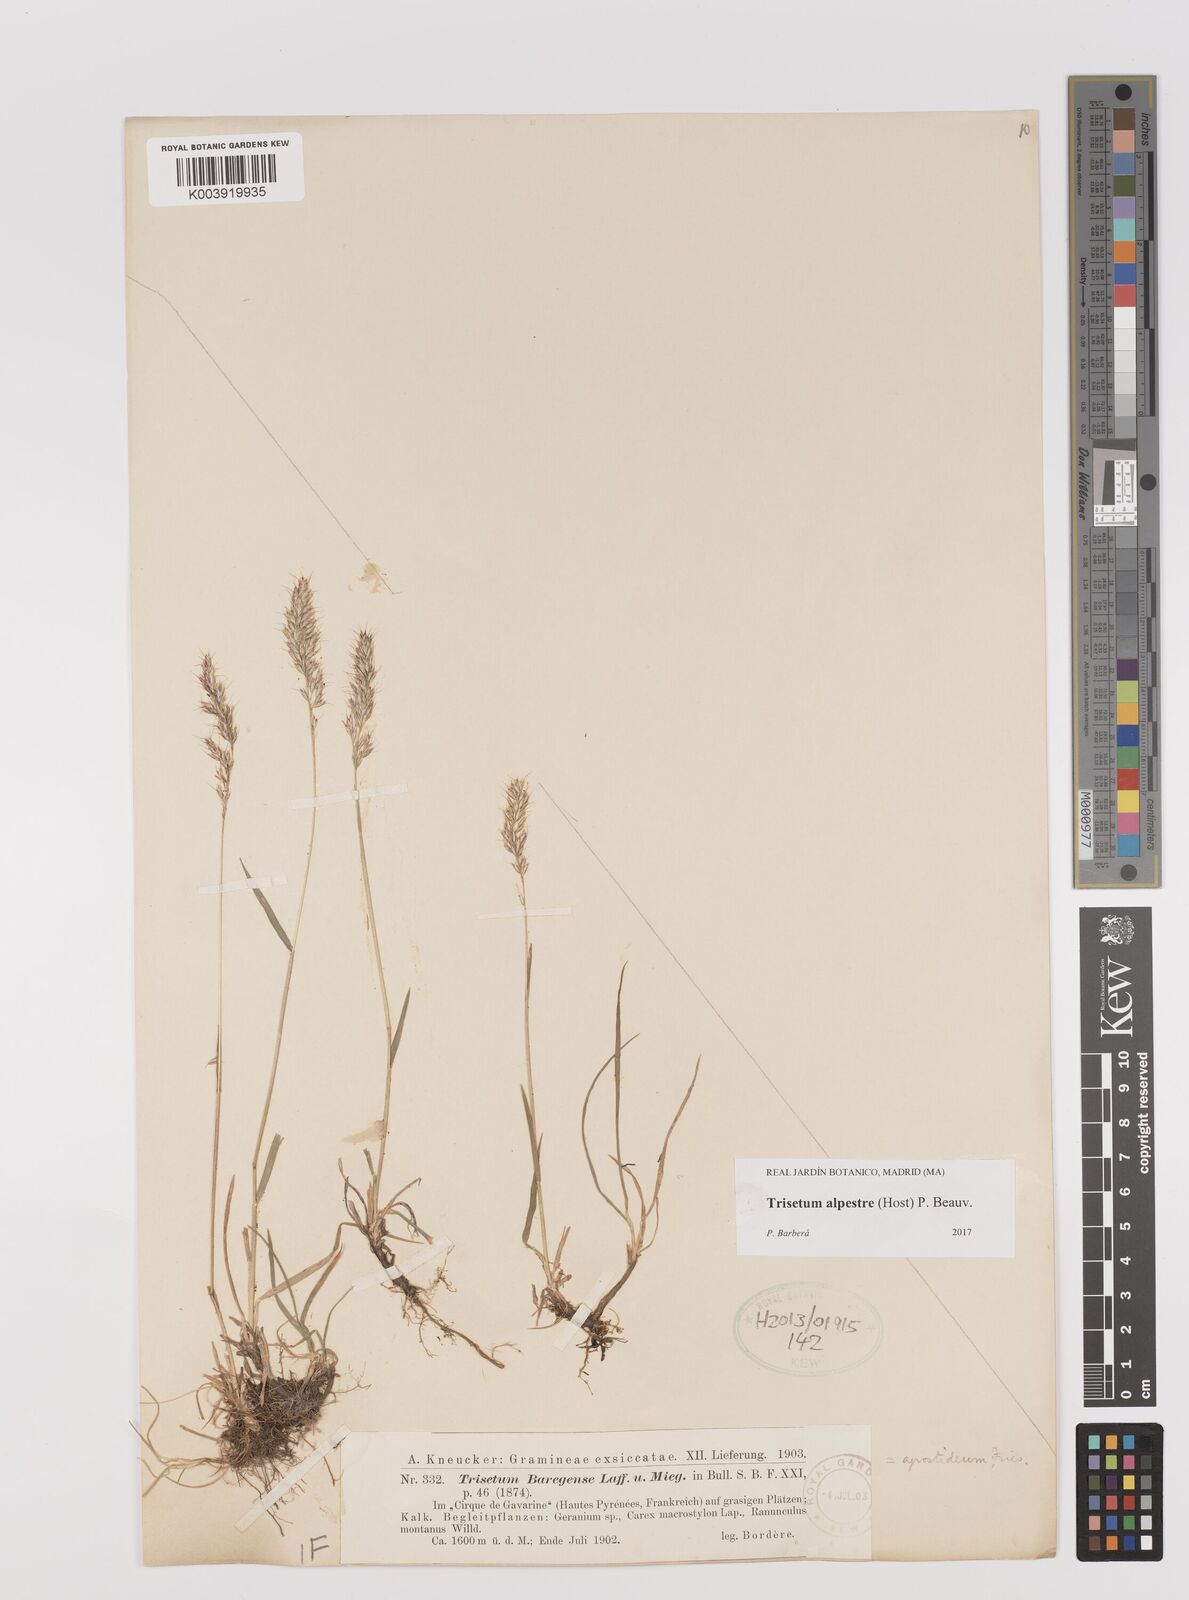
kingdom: Plantae
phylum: Tracheophyta
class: Liliopsida
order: Poales
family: Poaceae
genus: Trisetum
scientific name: Trisetum alpestre
